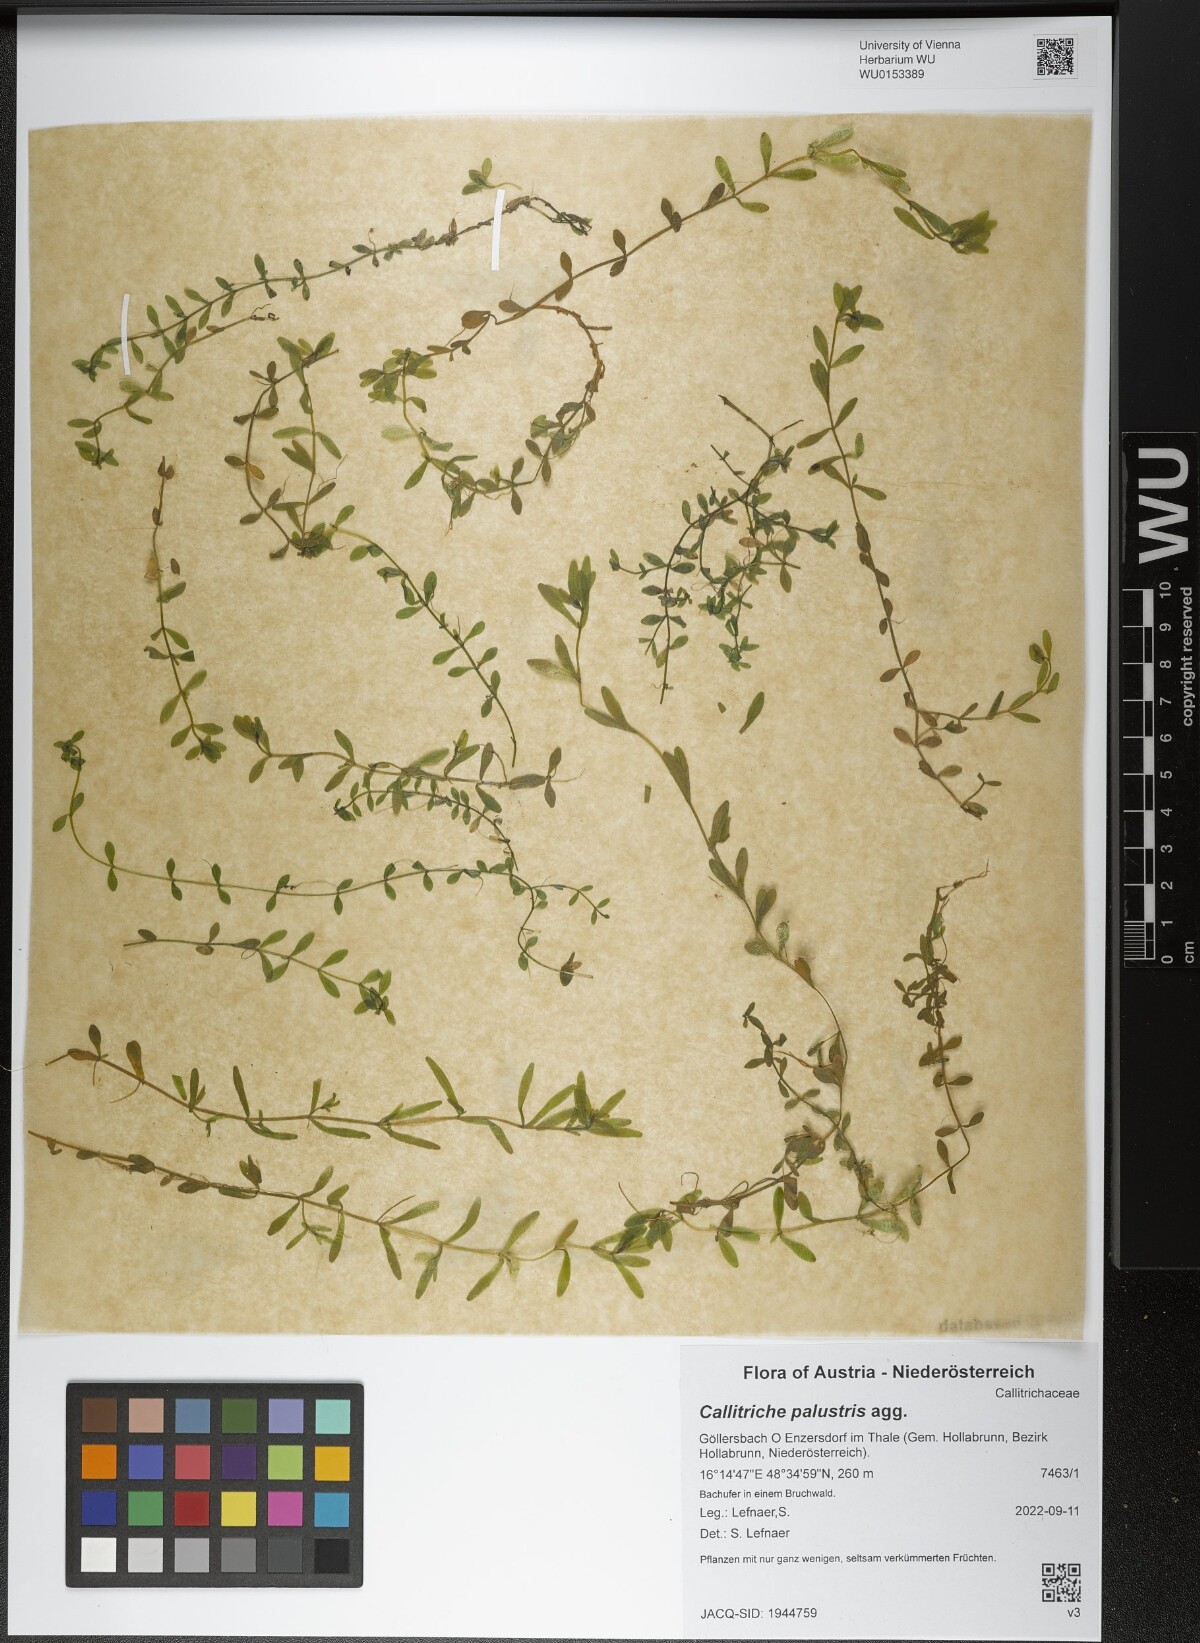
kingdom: Plantae
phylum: Tracheophyta
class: Magnoliopsida
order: Lamiales
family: Plantaginaceae
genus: Callitriche
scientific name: Callitriche palustris
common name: Spring water-starwort
